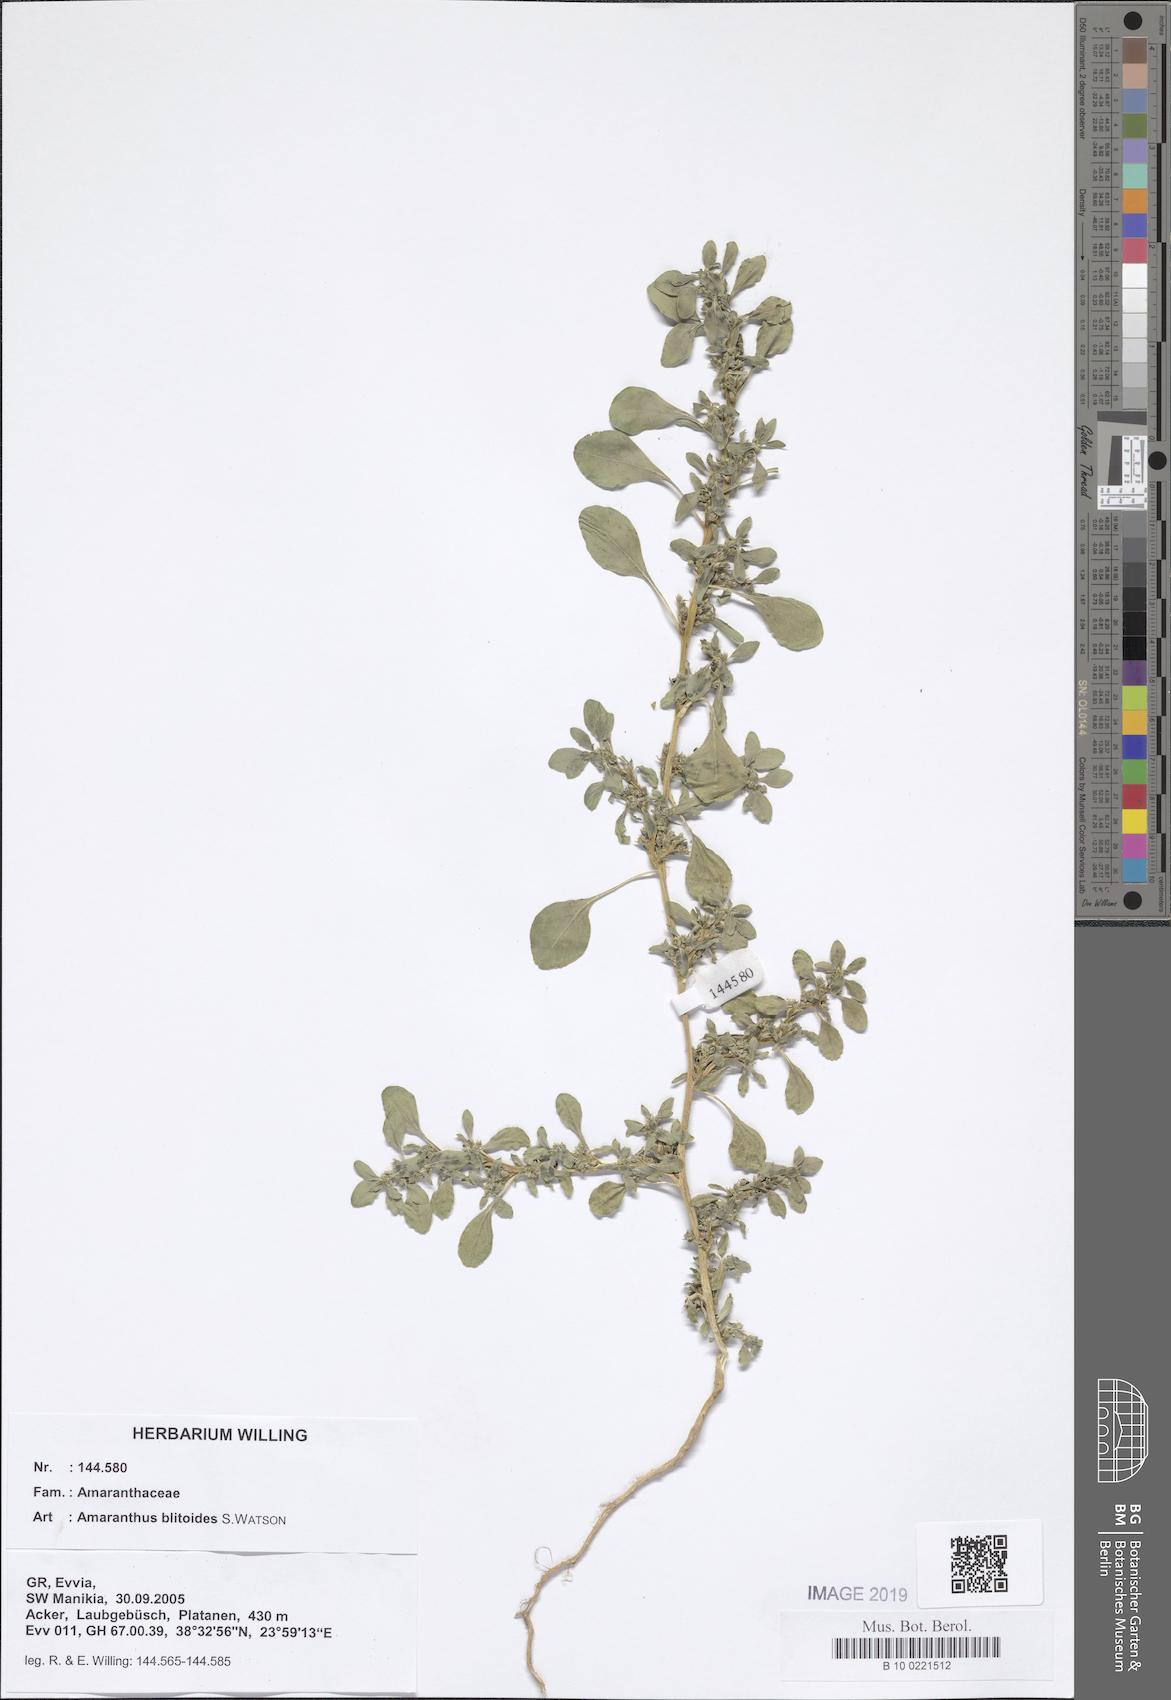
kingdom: Plantae
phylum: Tracheophyta
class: Magnoliopsida
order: Caryophyllales
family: Amaranthaceae
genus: Amaranthus
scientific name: Amaranthus blitoides
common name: Prostrate pigweed
